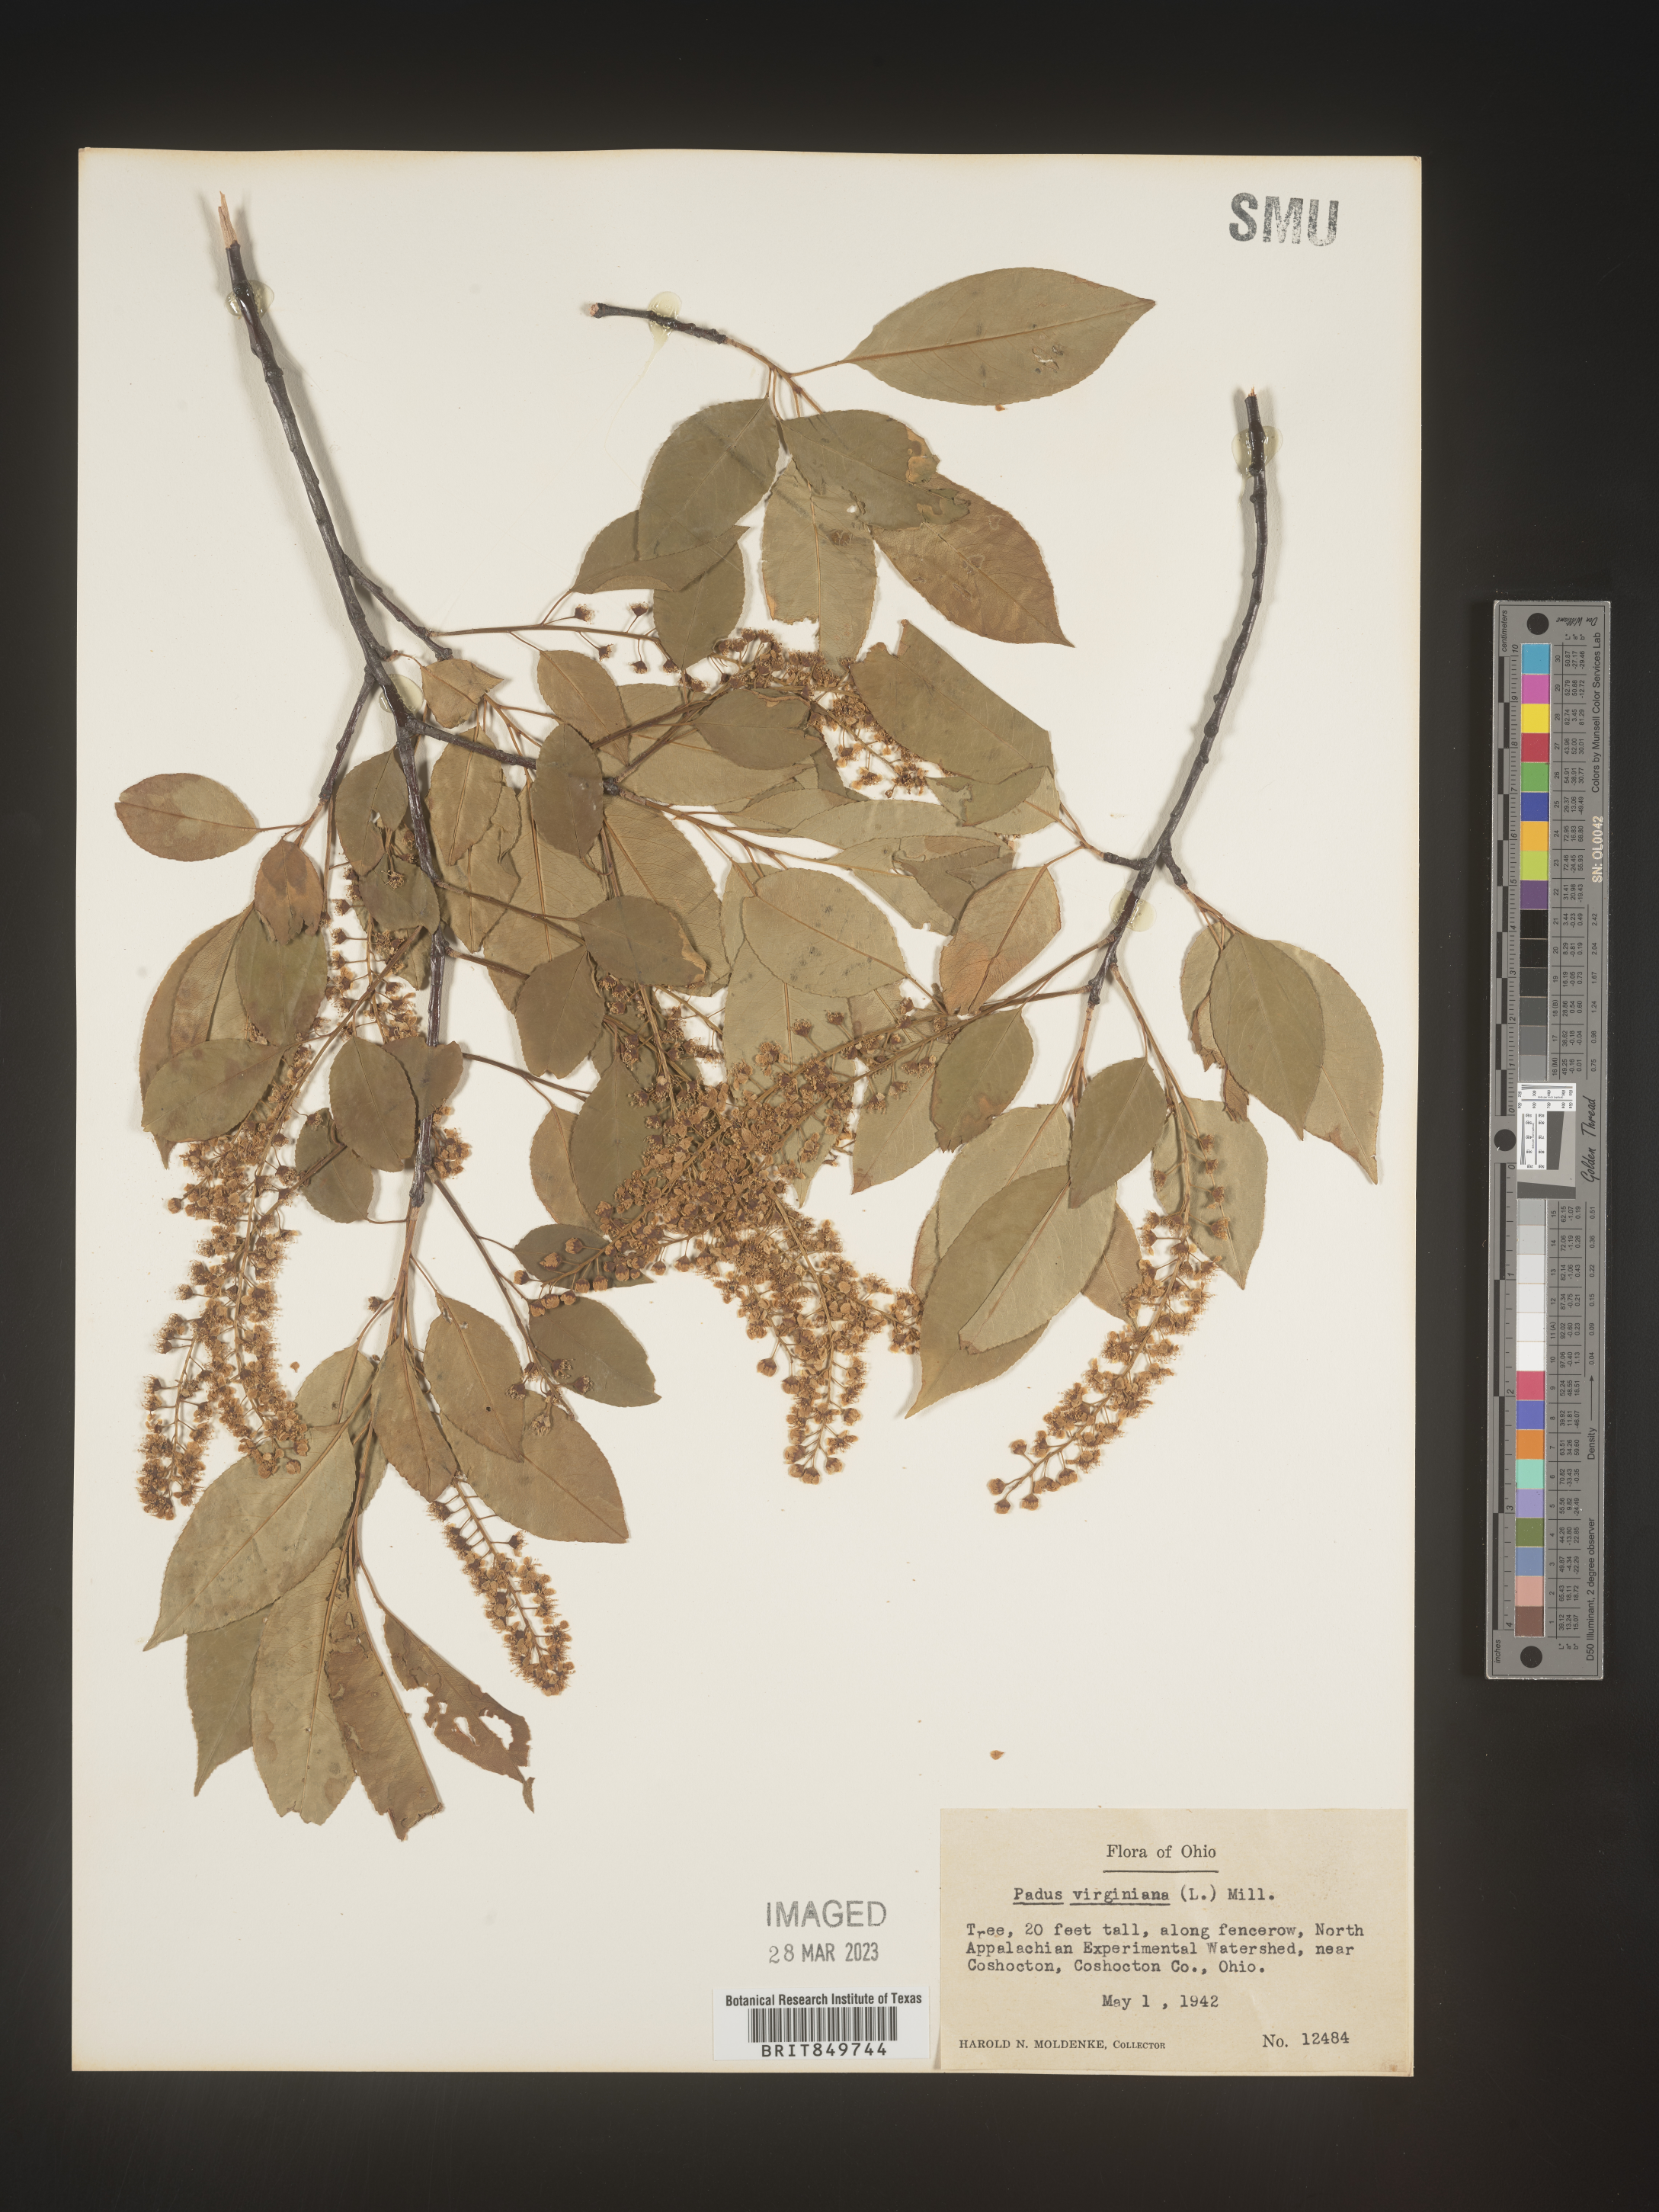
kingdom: Plantae
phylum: Tracheophyta
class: Magnoliopsida
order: Rosales
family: Rosaceae
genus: Prunus
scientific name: Prunus virginiana
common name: Chokecherry
